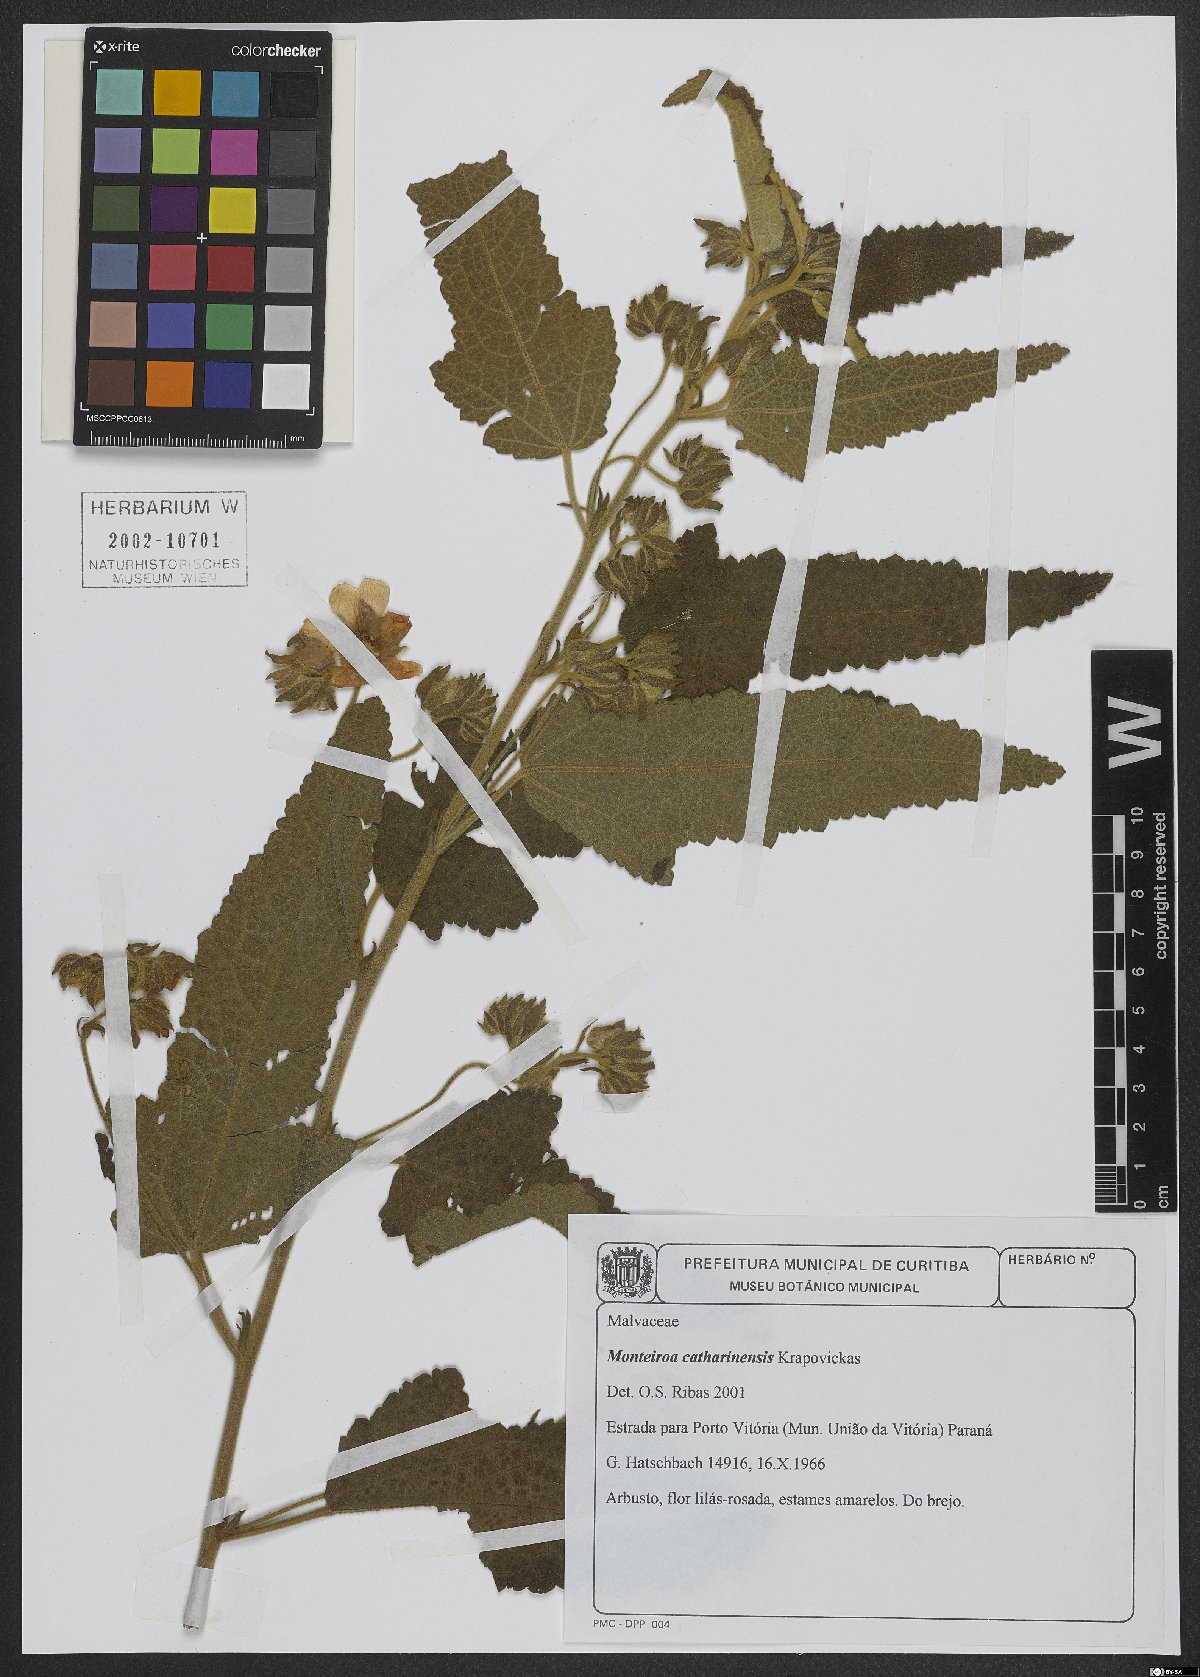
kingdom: Plantae
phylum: Tracheophyta
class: Magnoliopsida
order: Malvales
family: Malvaceae
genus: Monteiroa
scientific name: Monteiroa catharinensis
